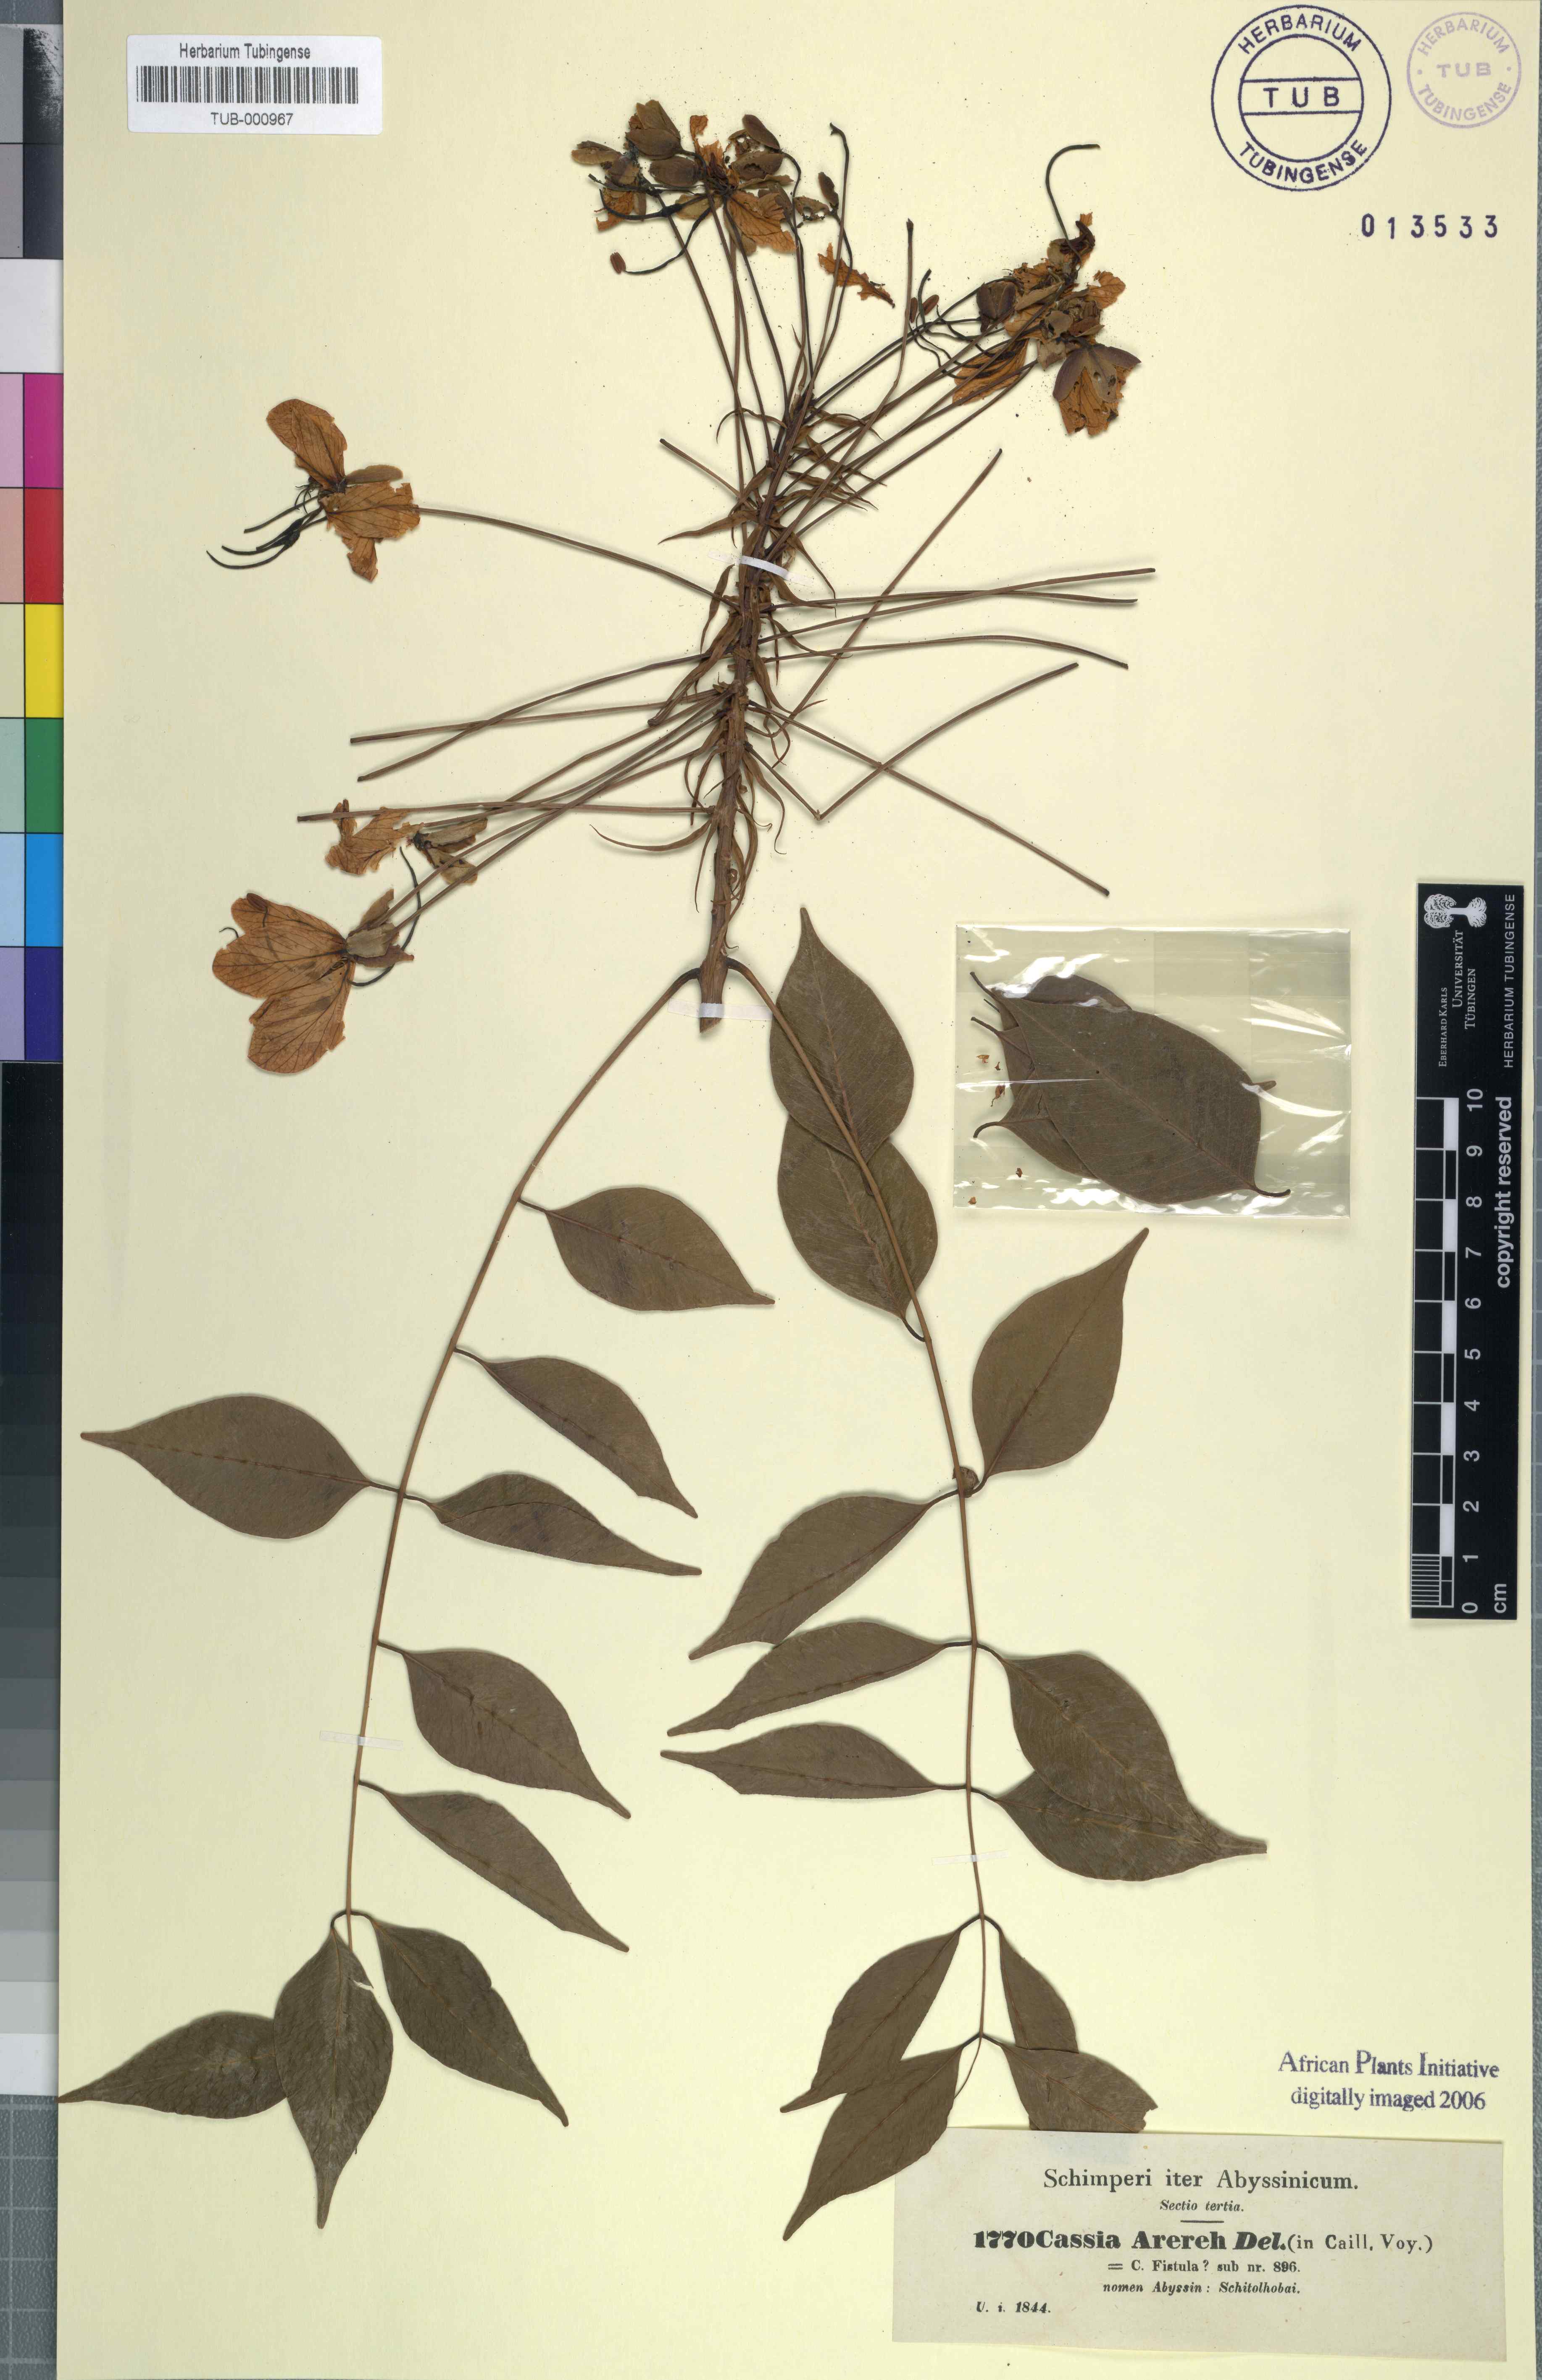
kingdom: Plantae
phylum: Tracheophyta
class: Magnoliopsida
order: Fabales
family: Fabaceae
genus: Cassia
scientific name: Cassia fistula
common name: Golden shower
